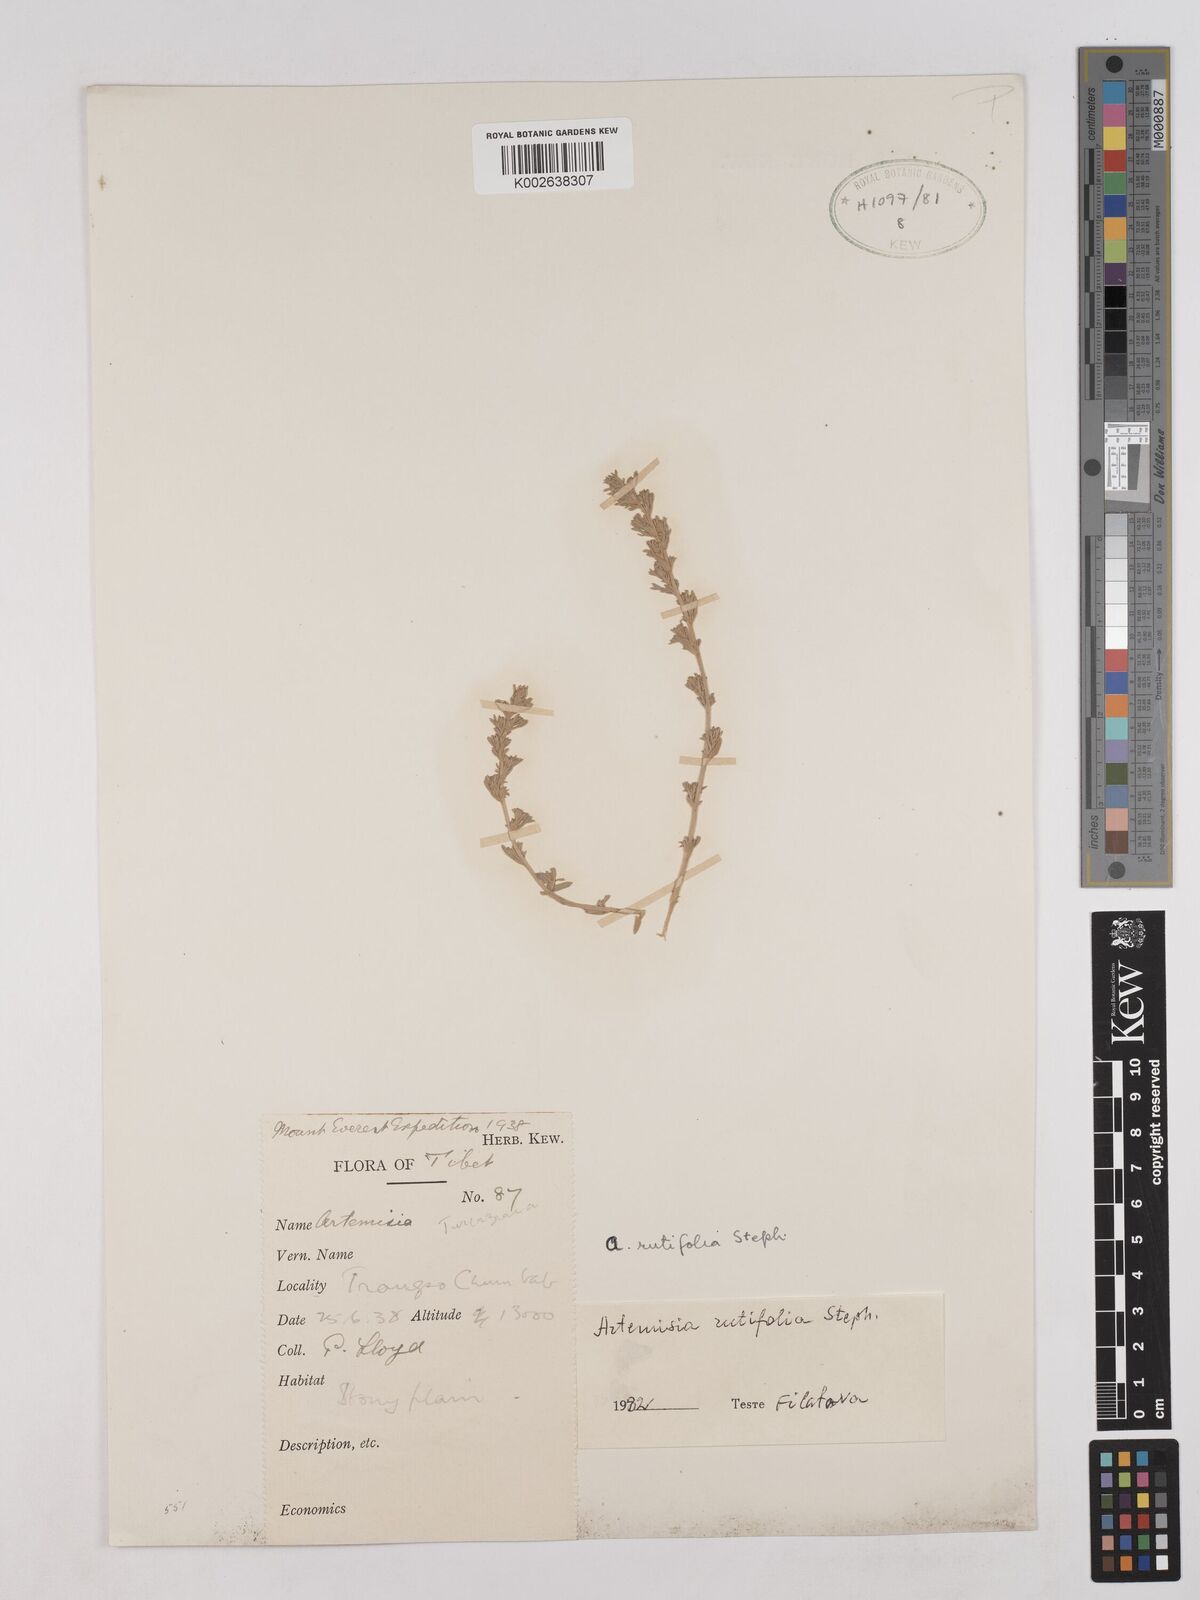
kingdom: Plantae
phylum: Tracheophyta
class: Magnoliopsida
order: Asterales
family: Asteraceae
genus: Artemisia
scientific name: Artemisia rutifolia
